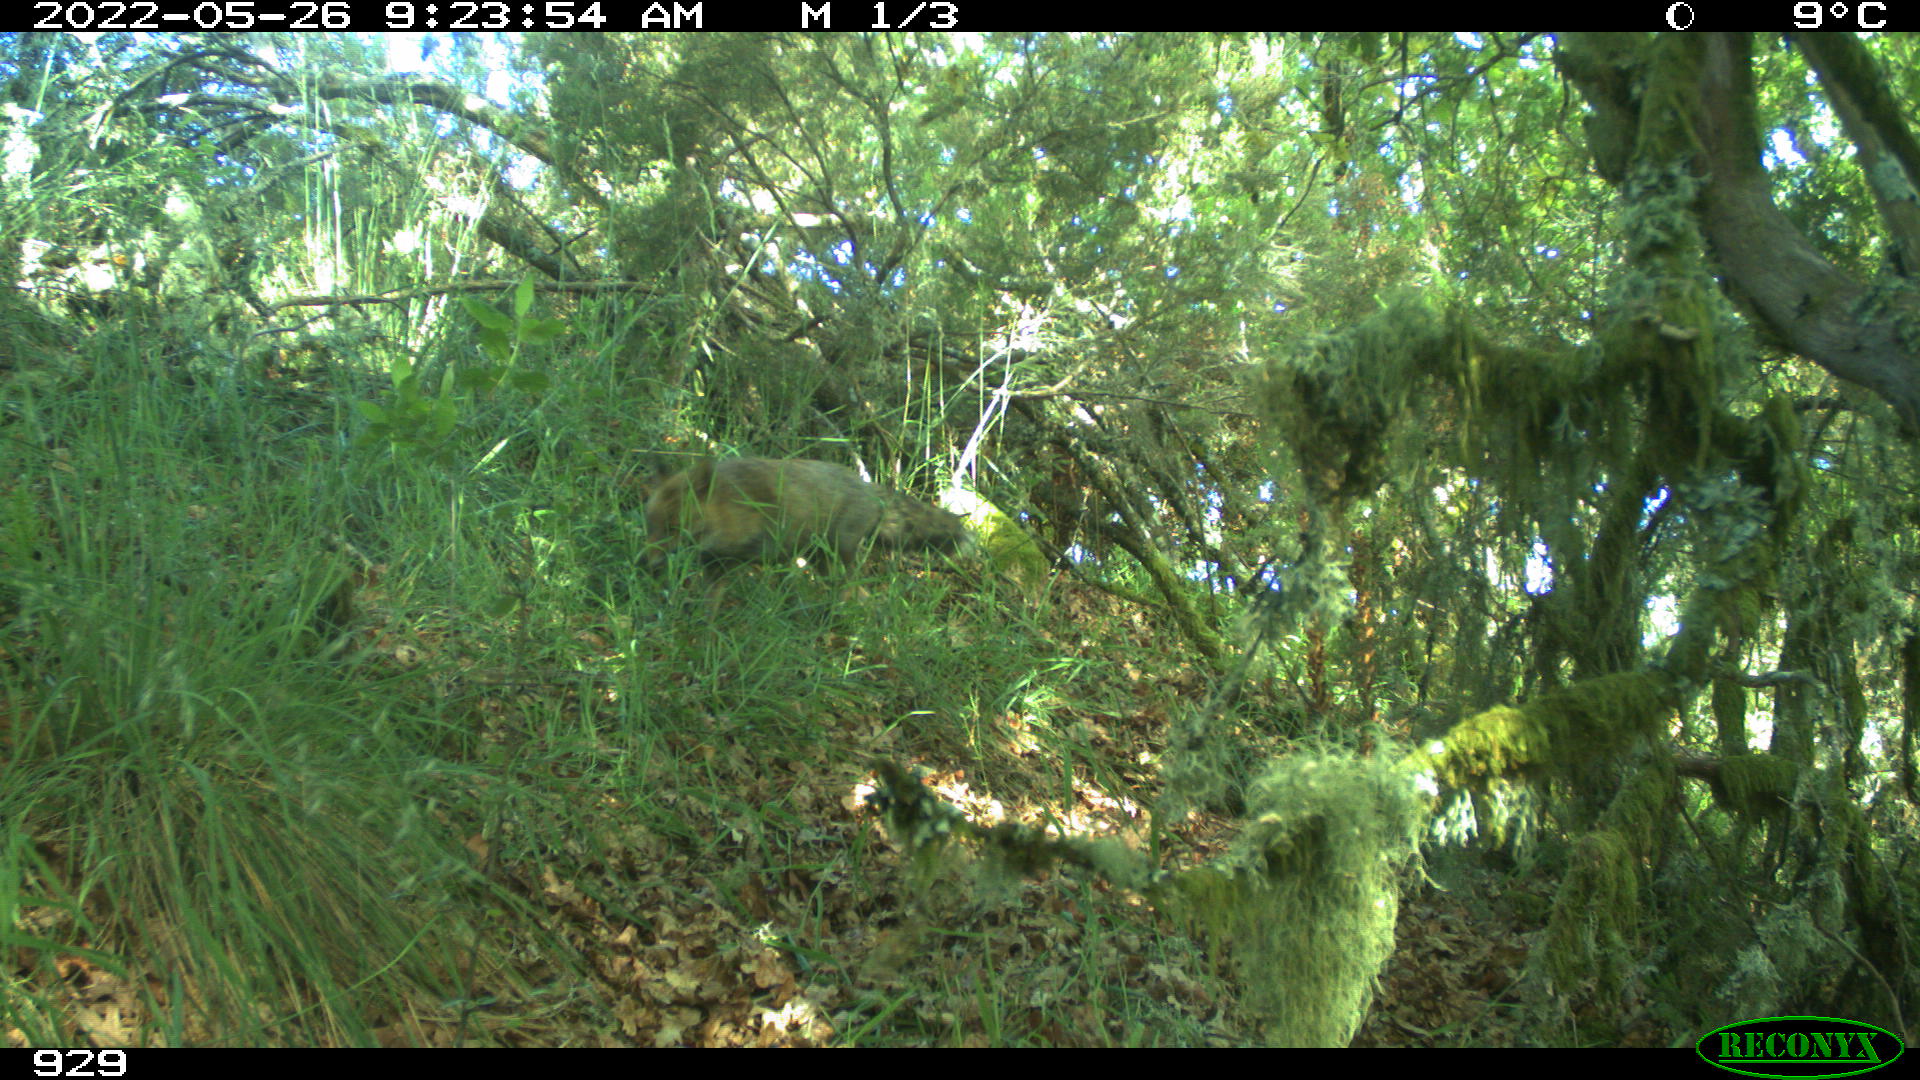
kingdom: Animalia
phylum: Chordata
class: Mammalia
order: Carnivora
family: Canidae
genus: Vulpes
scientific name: Vulpes vulpes
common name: Red fox
